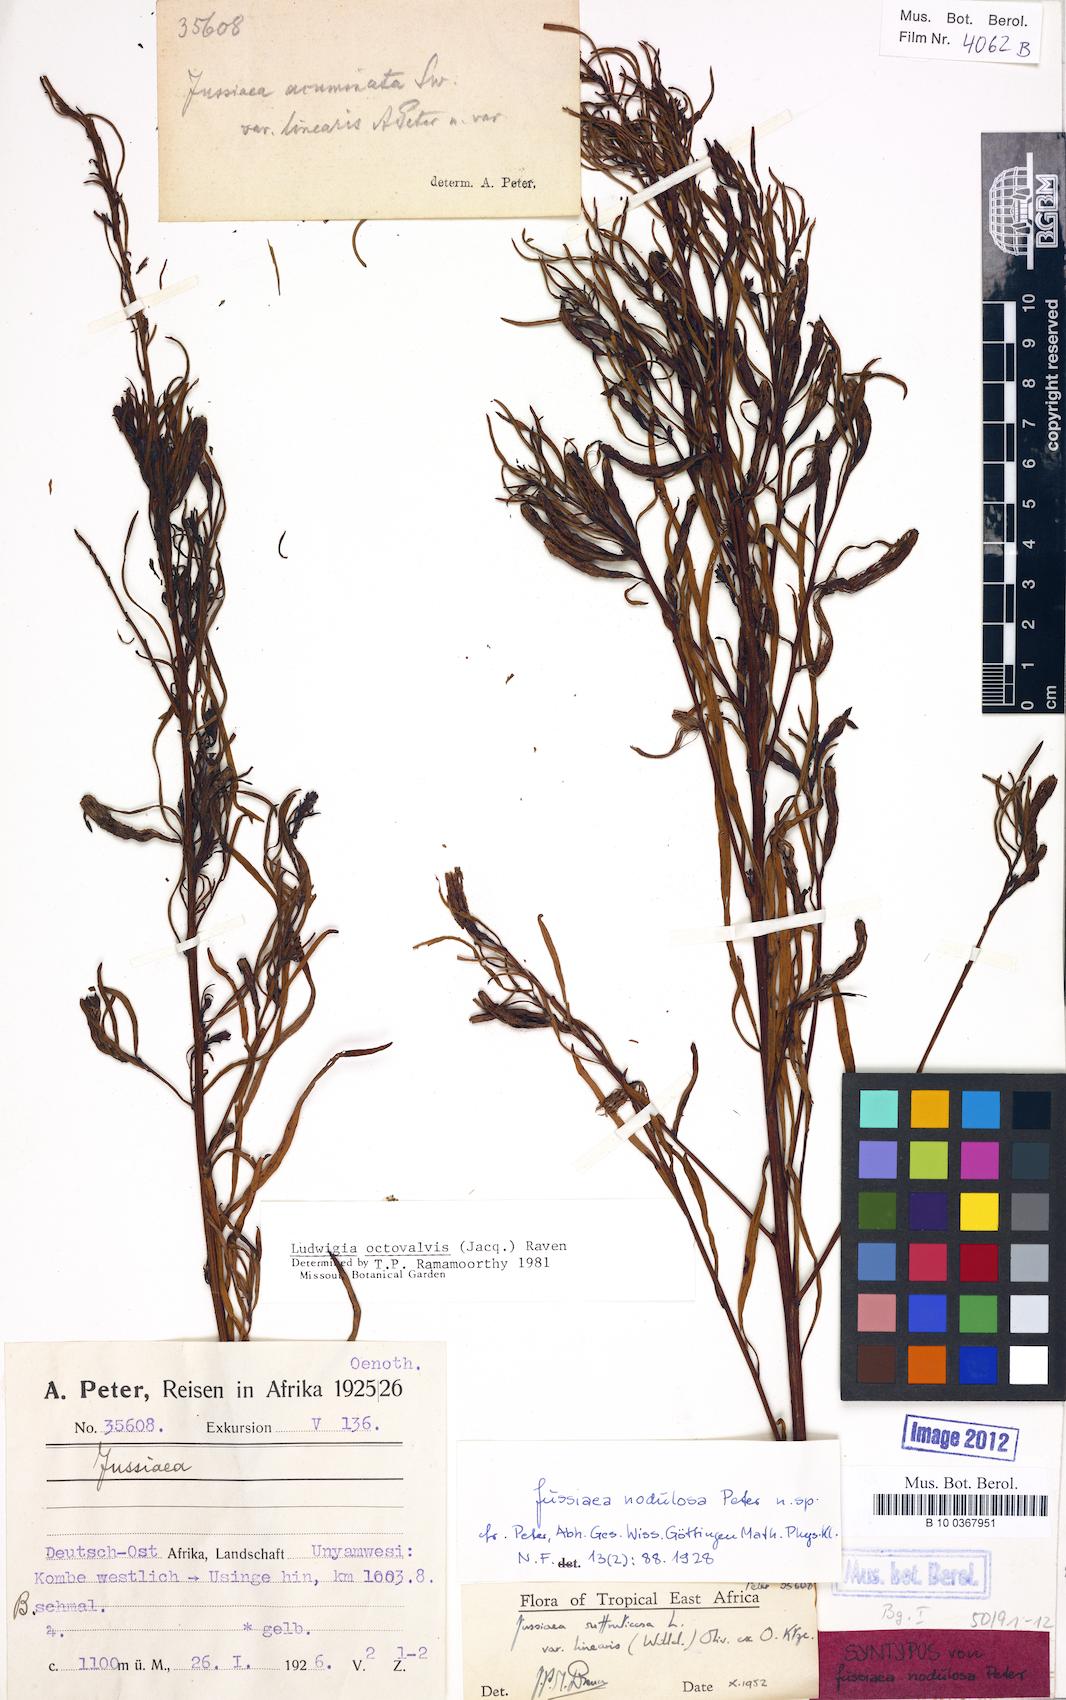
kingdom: Plantae
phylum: Tracheophyta
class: Magnoliopsida
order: Myrtales
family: Onagraceae
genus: Ludwigia
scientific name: Ludwigia octovalvis
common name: Water-primrose
